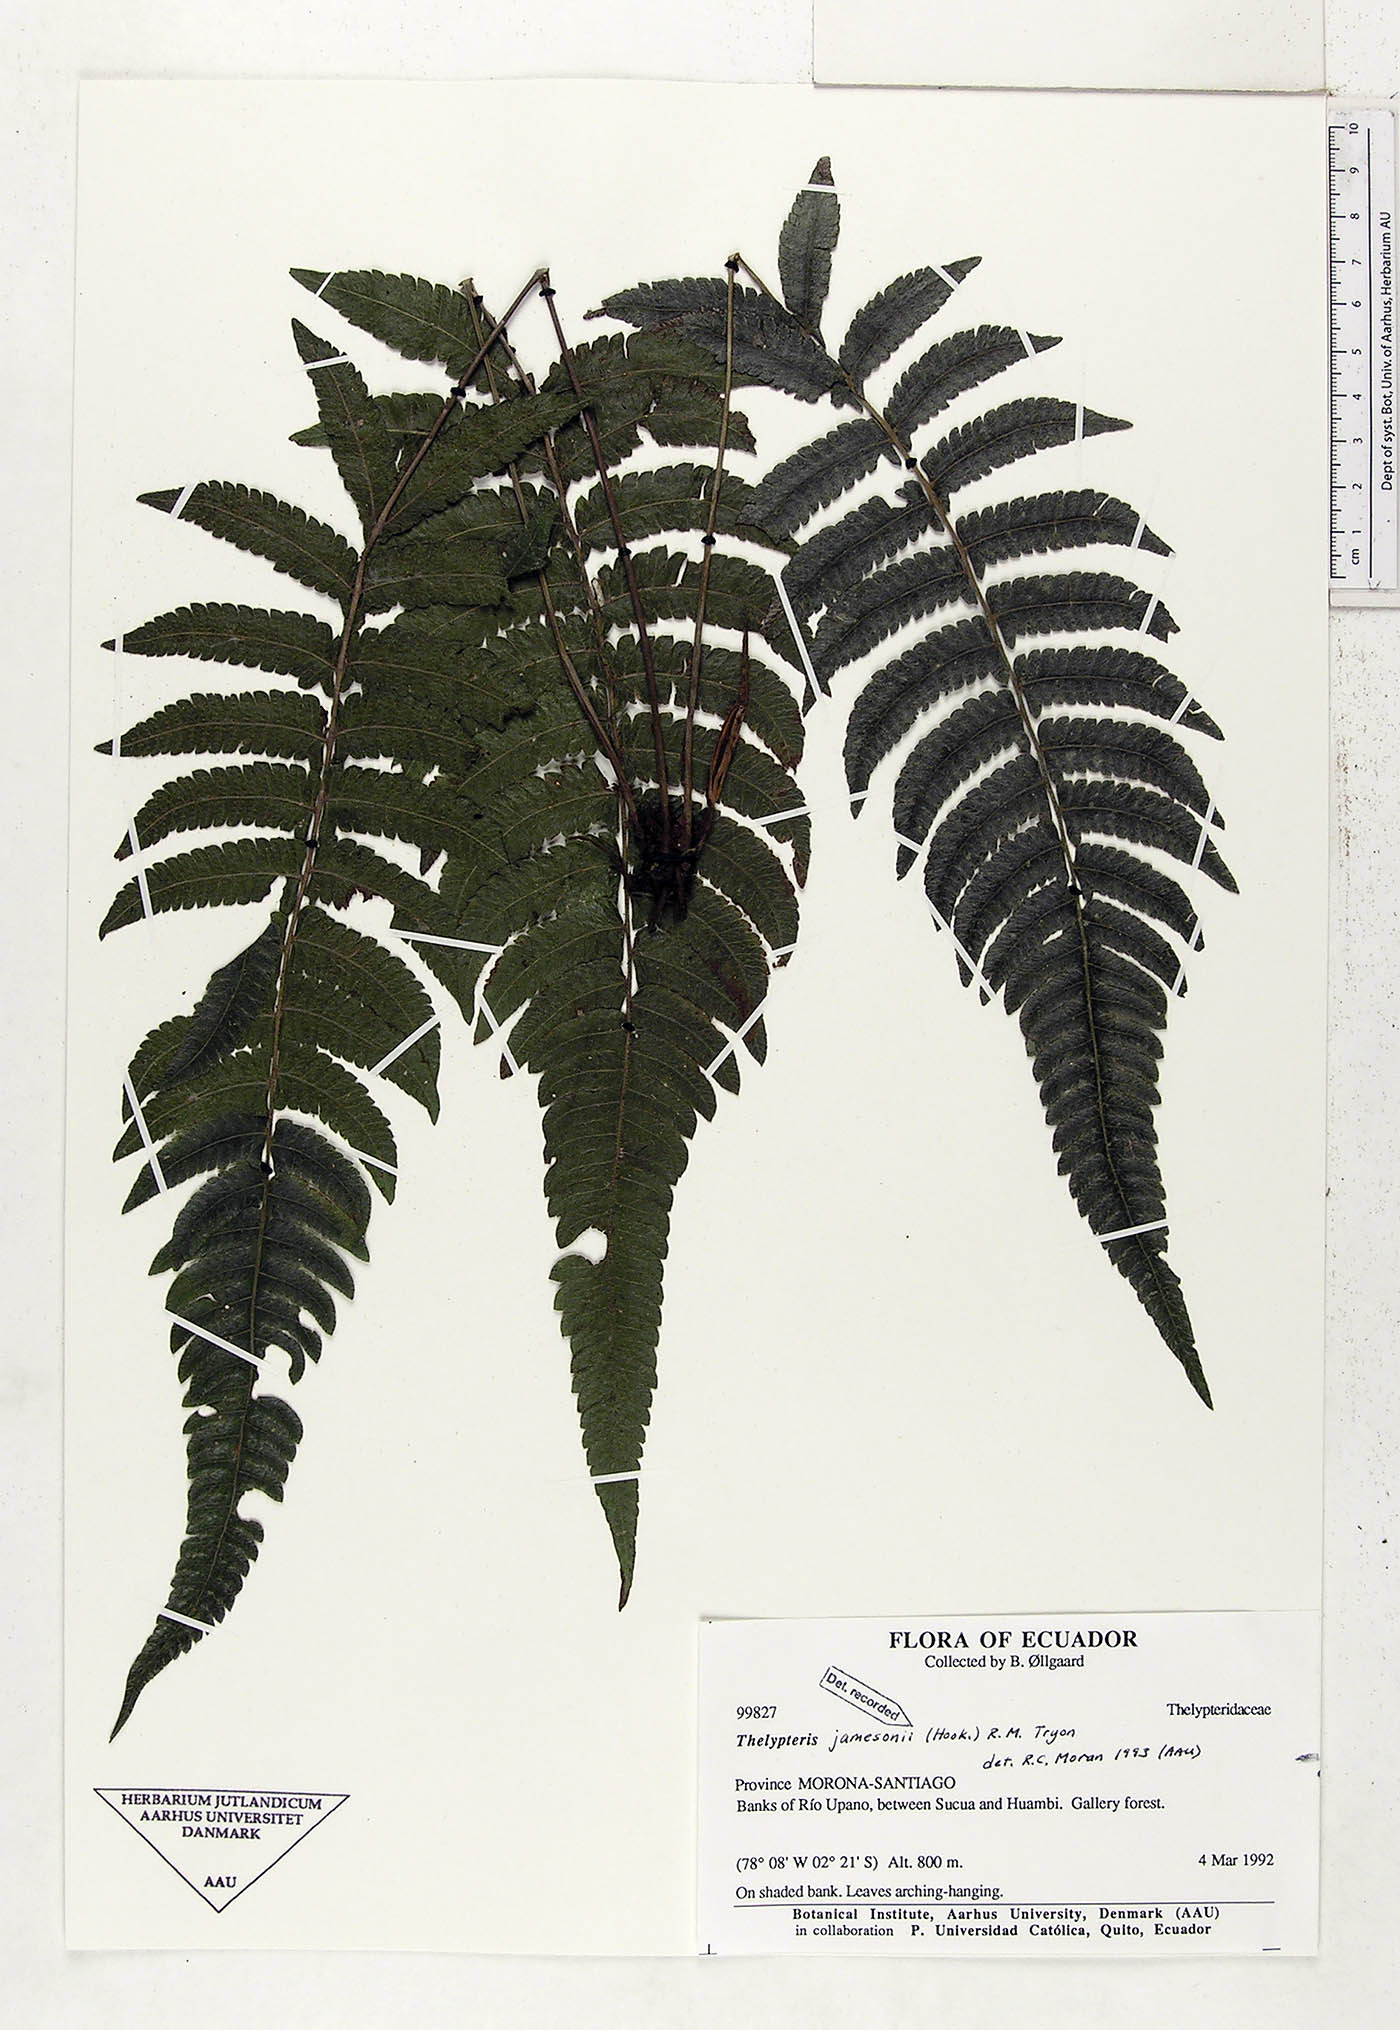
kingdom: Plantae
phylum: Tracheophyta
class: Polypodiopsida
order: Polypodiales
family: Thelypteridaceae
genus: Goniopteris
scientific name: Goniopteris jamesonii
